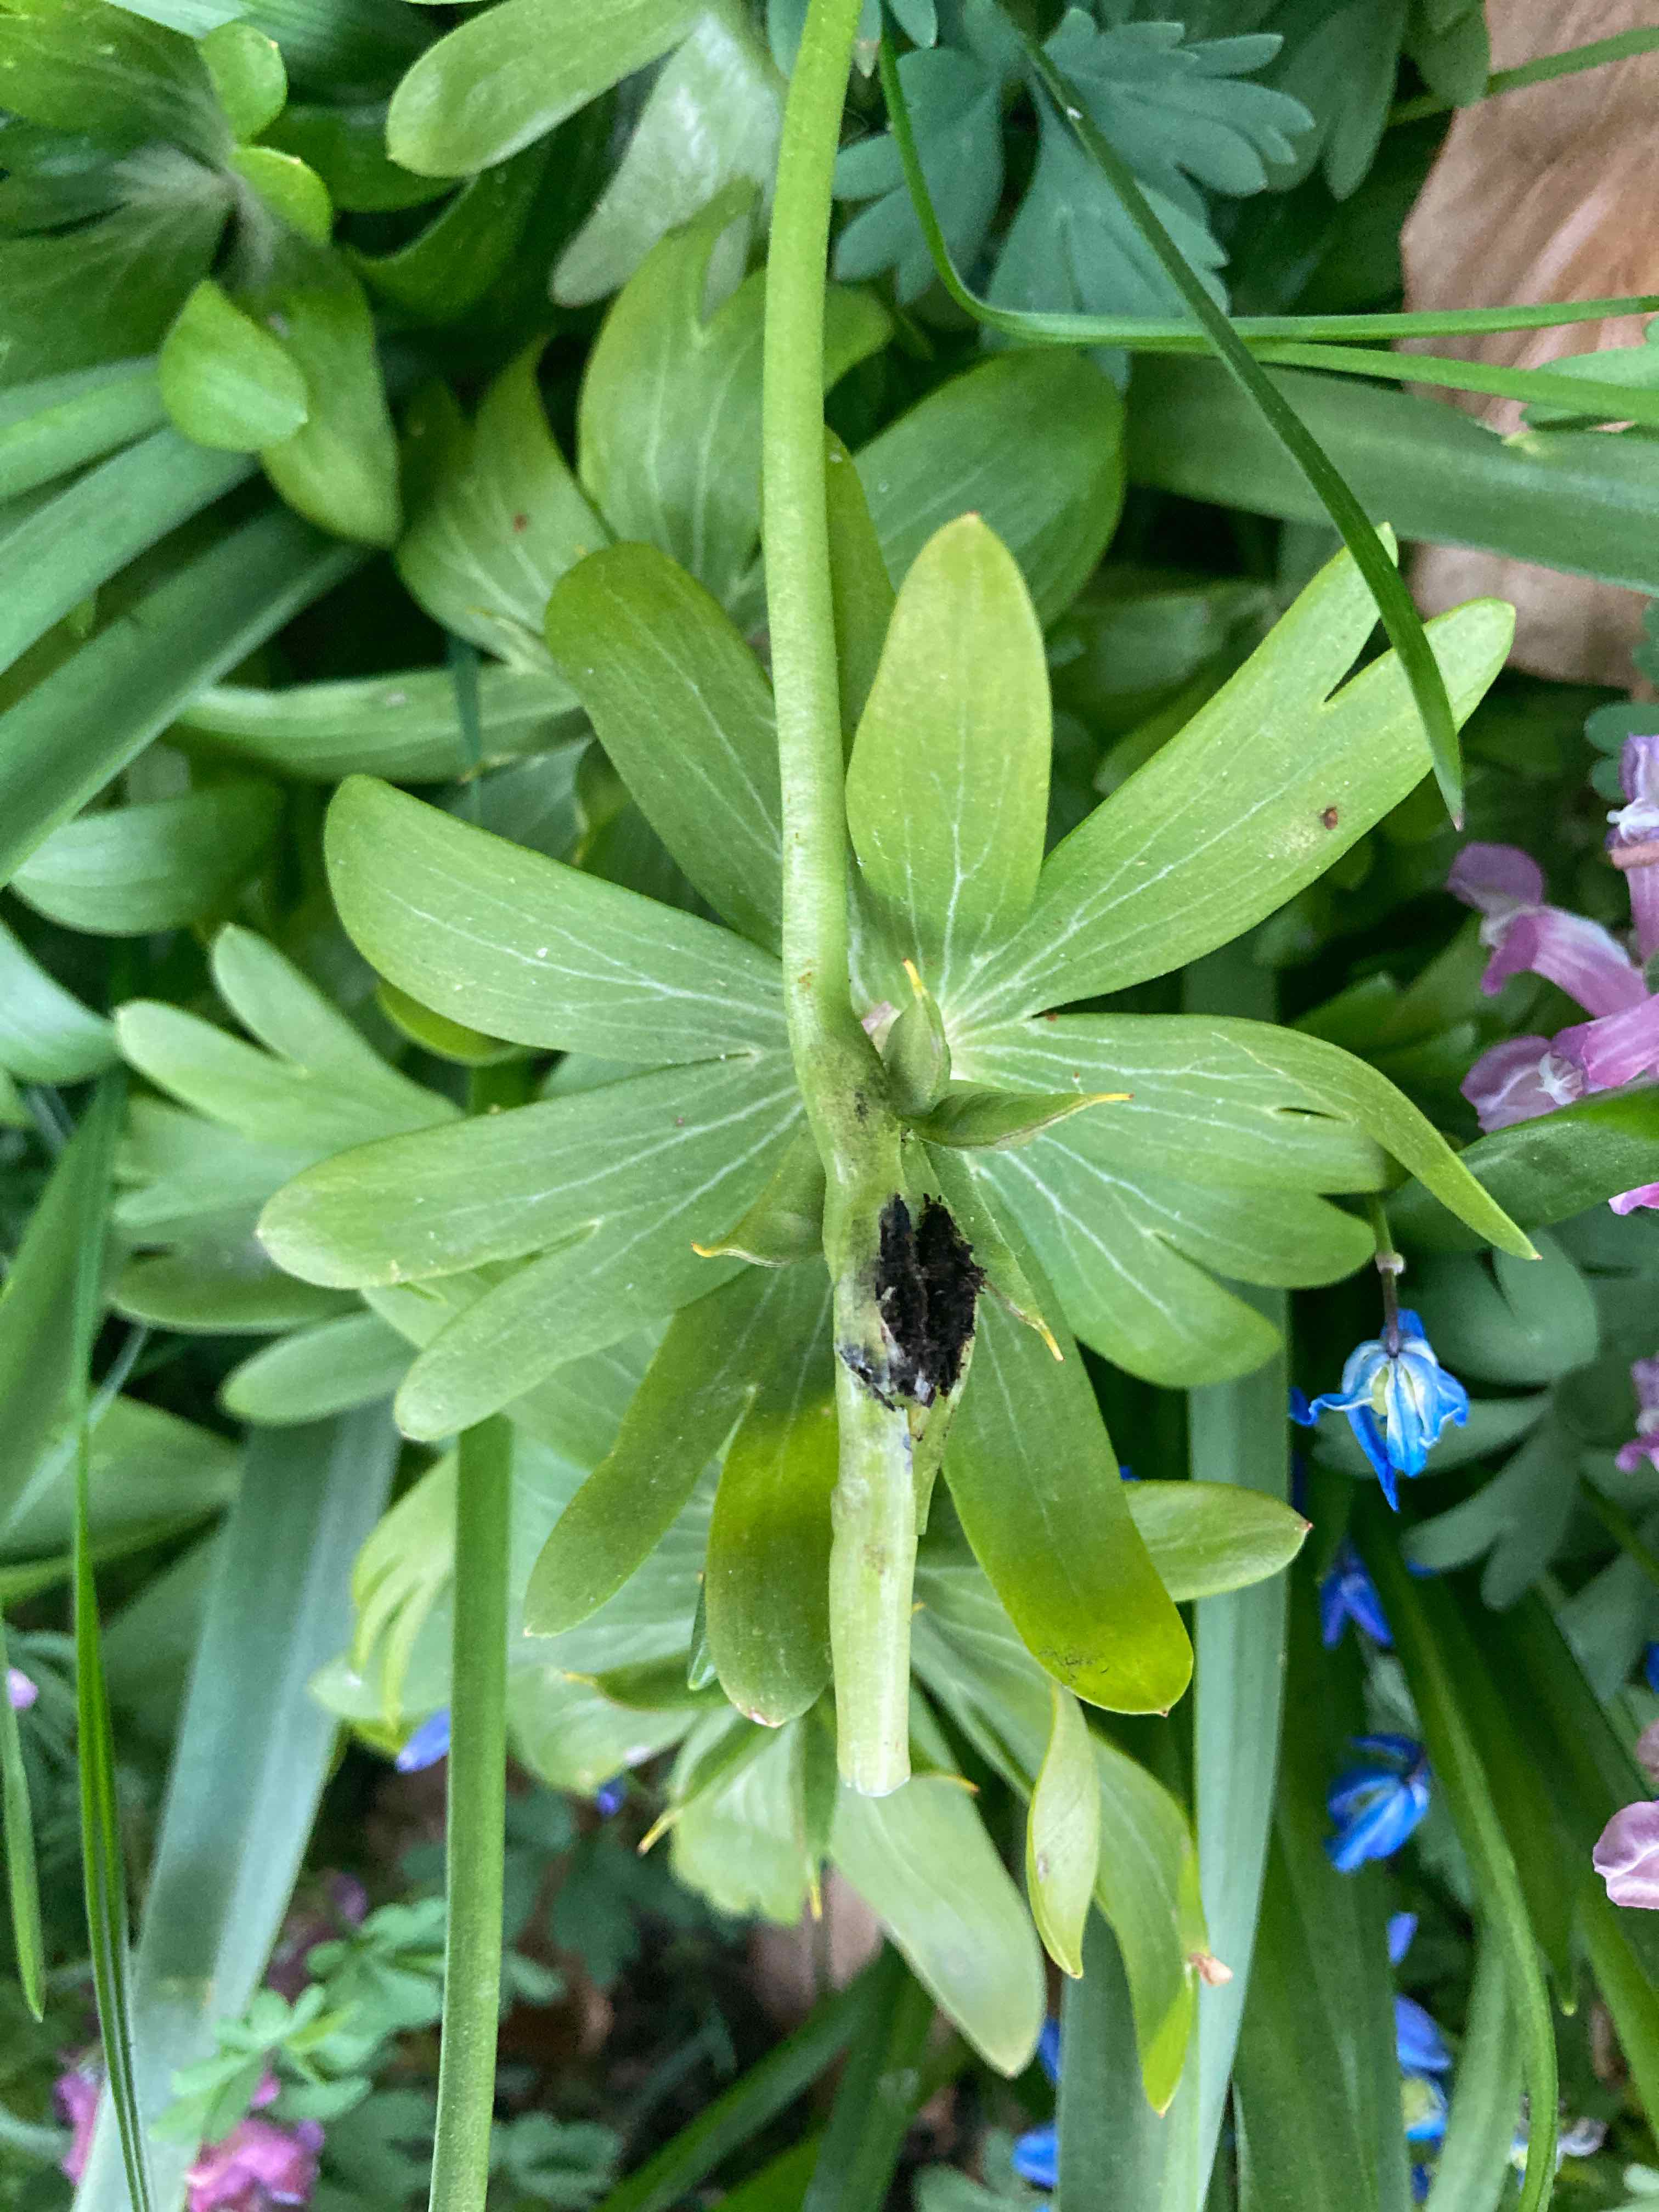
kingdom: Fungi
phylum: Basidiomycota
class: Ustilaginomycetes
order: Urocystidales
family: Urocystidaceae
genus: Urocystis
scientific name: Urocystis eranthidis
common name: erantis-brand
